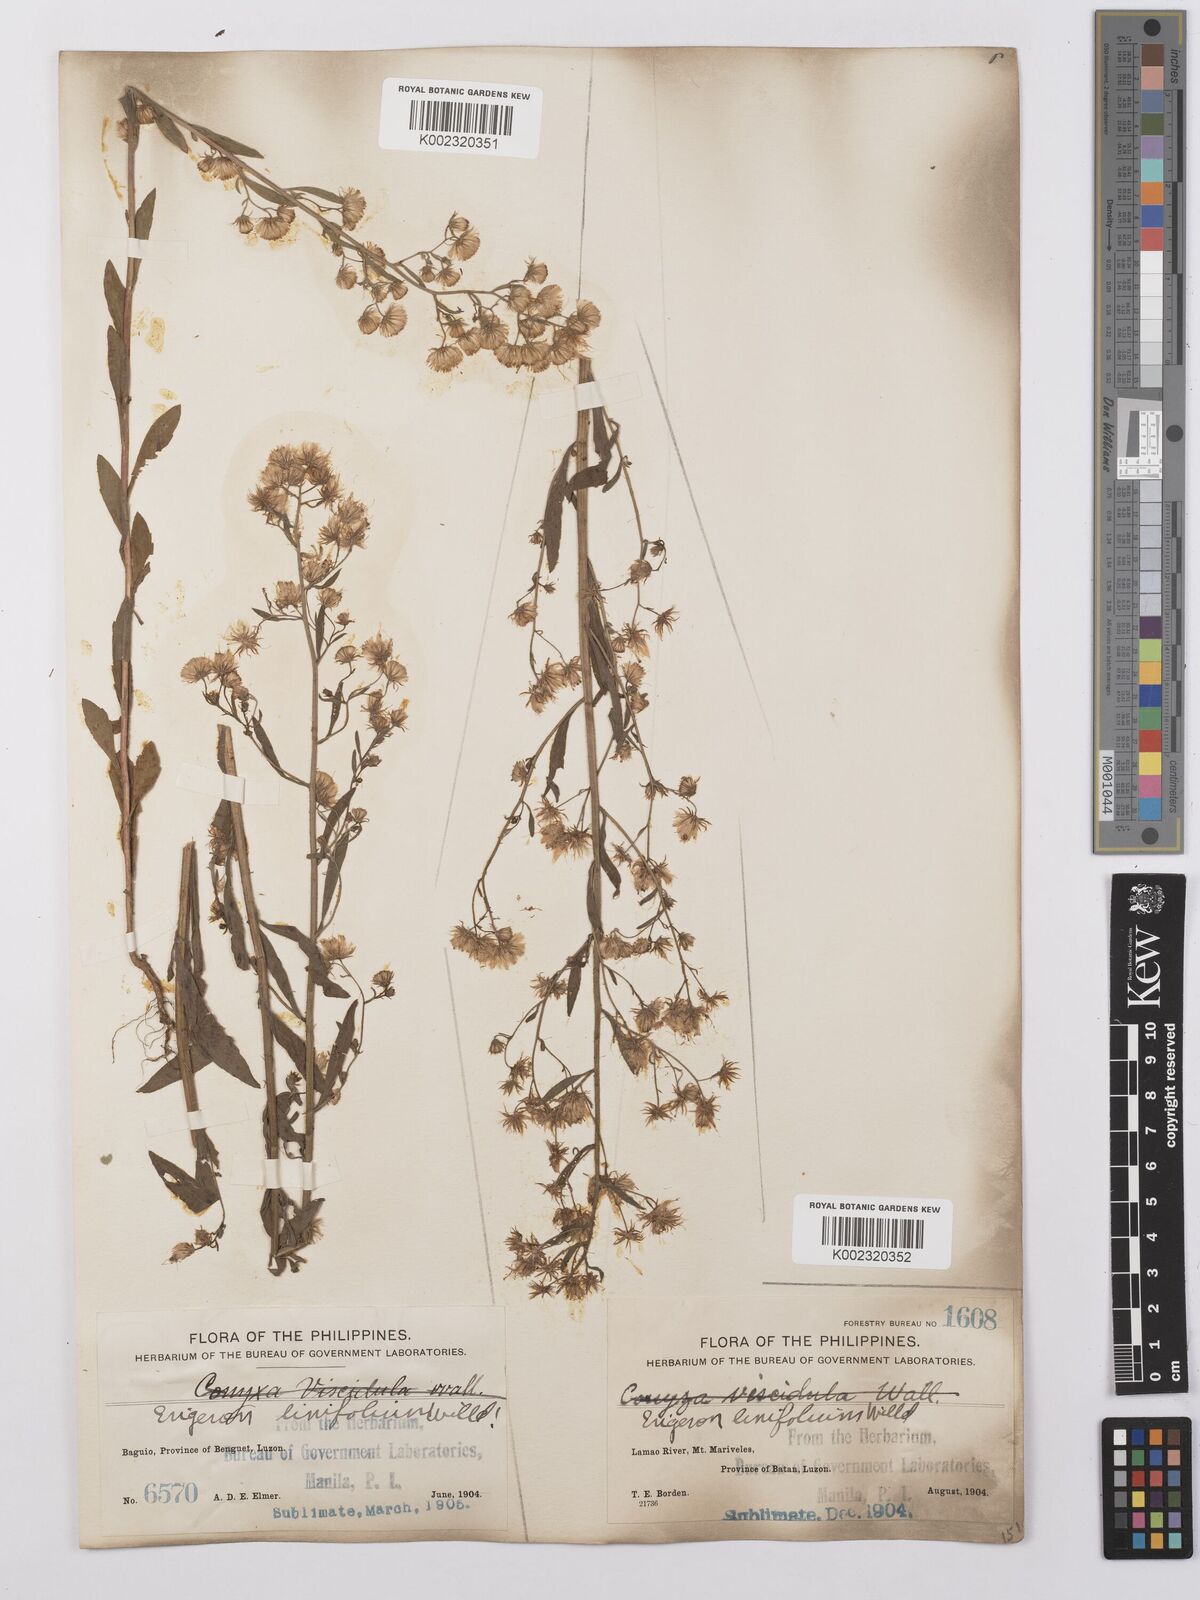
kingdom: Plantae
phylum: Tracheophyta
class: Magnoliopsida
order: Asterales
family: Asteraceae
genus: Erigeron
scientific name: Erigeron sumatrensis
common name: Daisy
